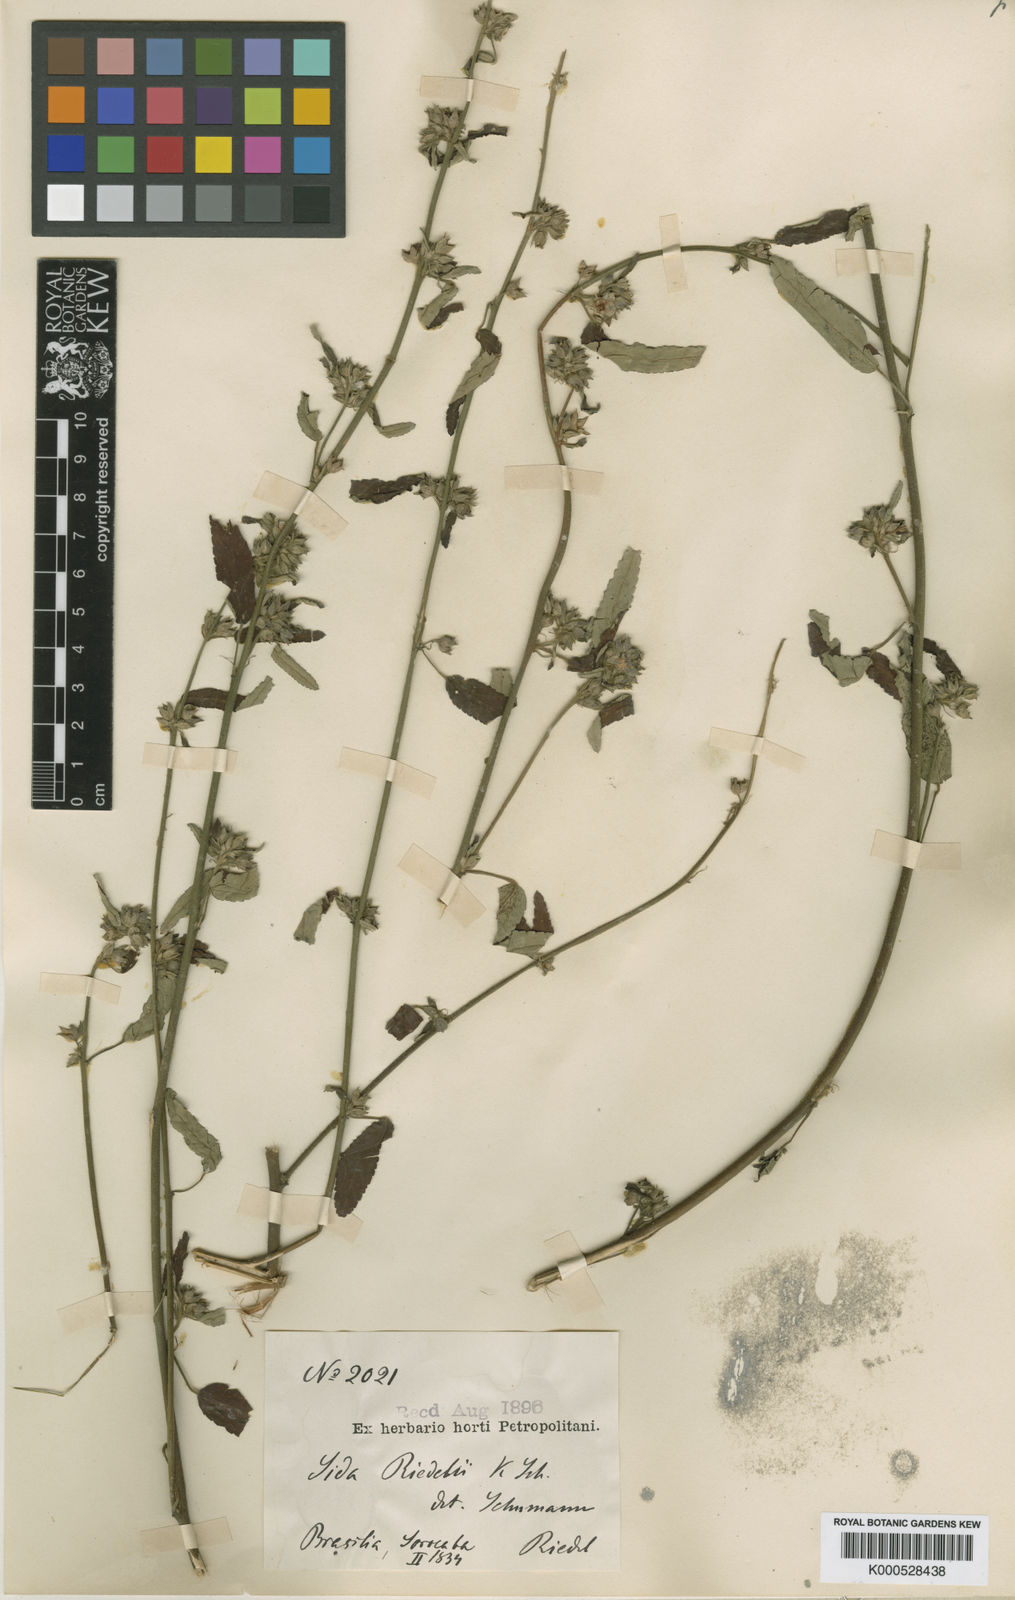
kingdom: Plantae
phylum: Tracheophyta
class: Magnoliopsida
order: Malvales
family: Malvaceae
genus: Sida
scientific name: Sida riedelii
